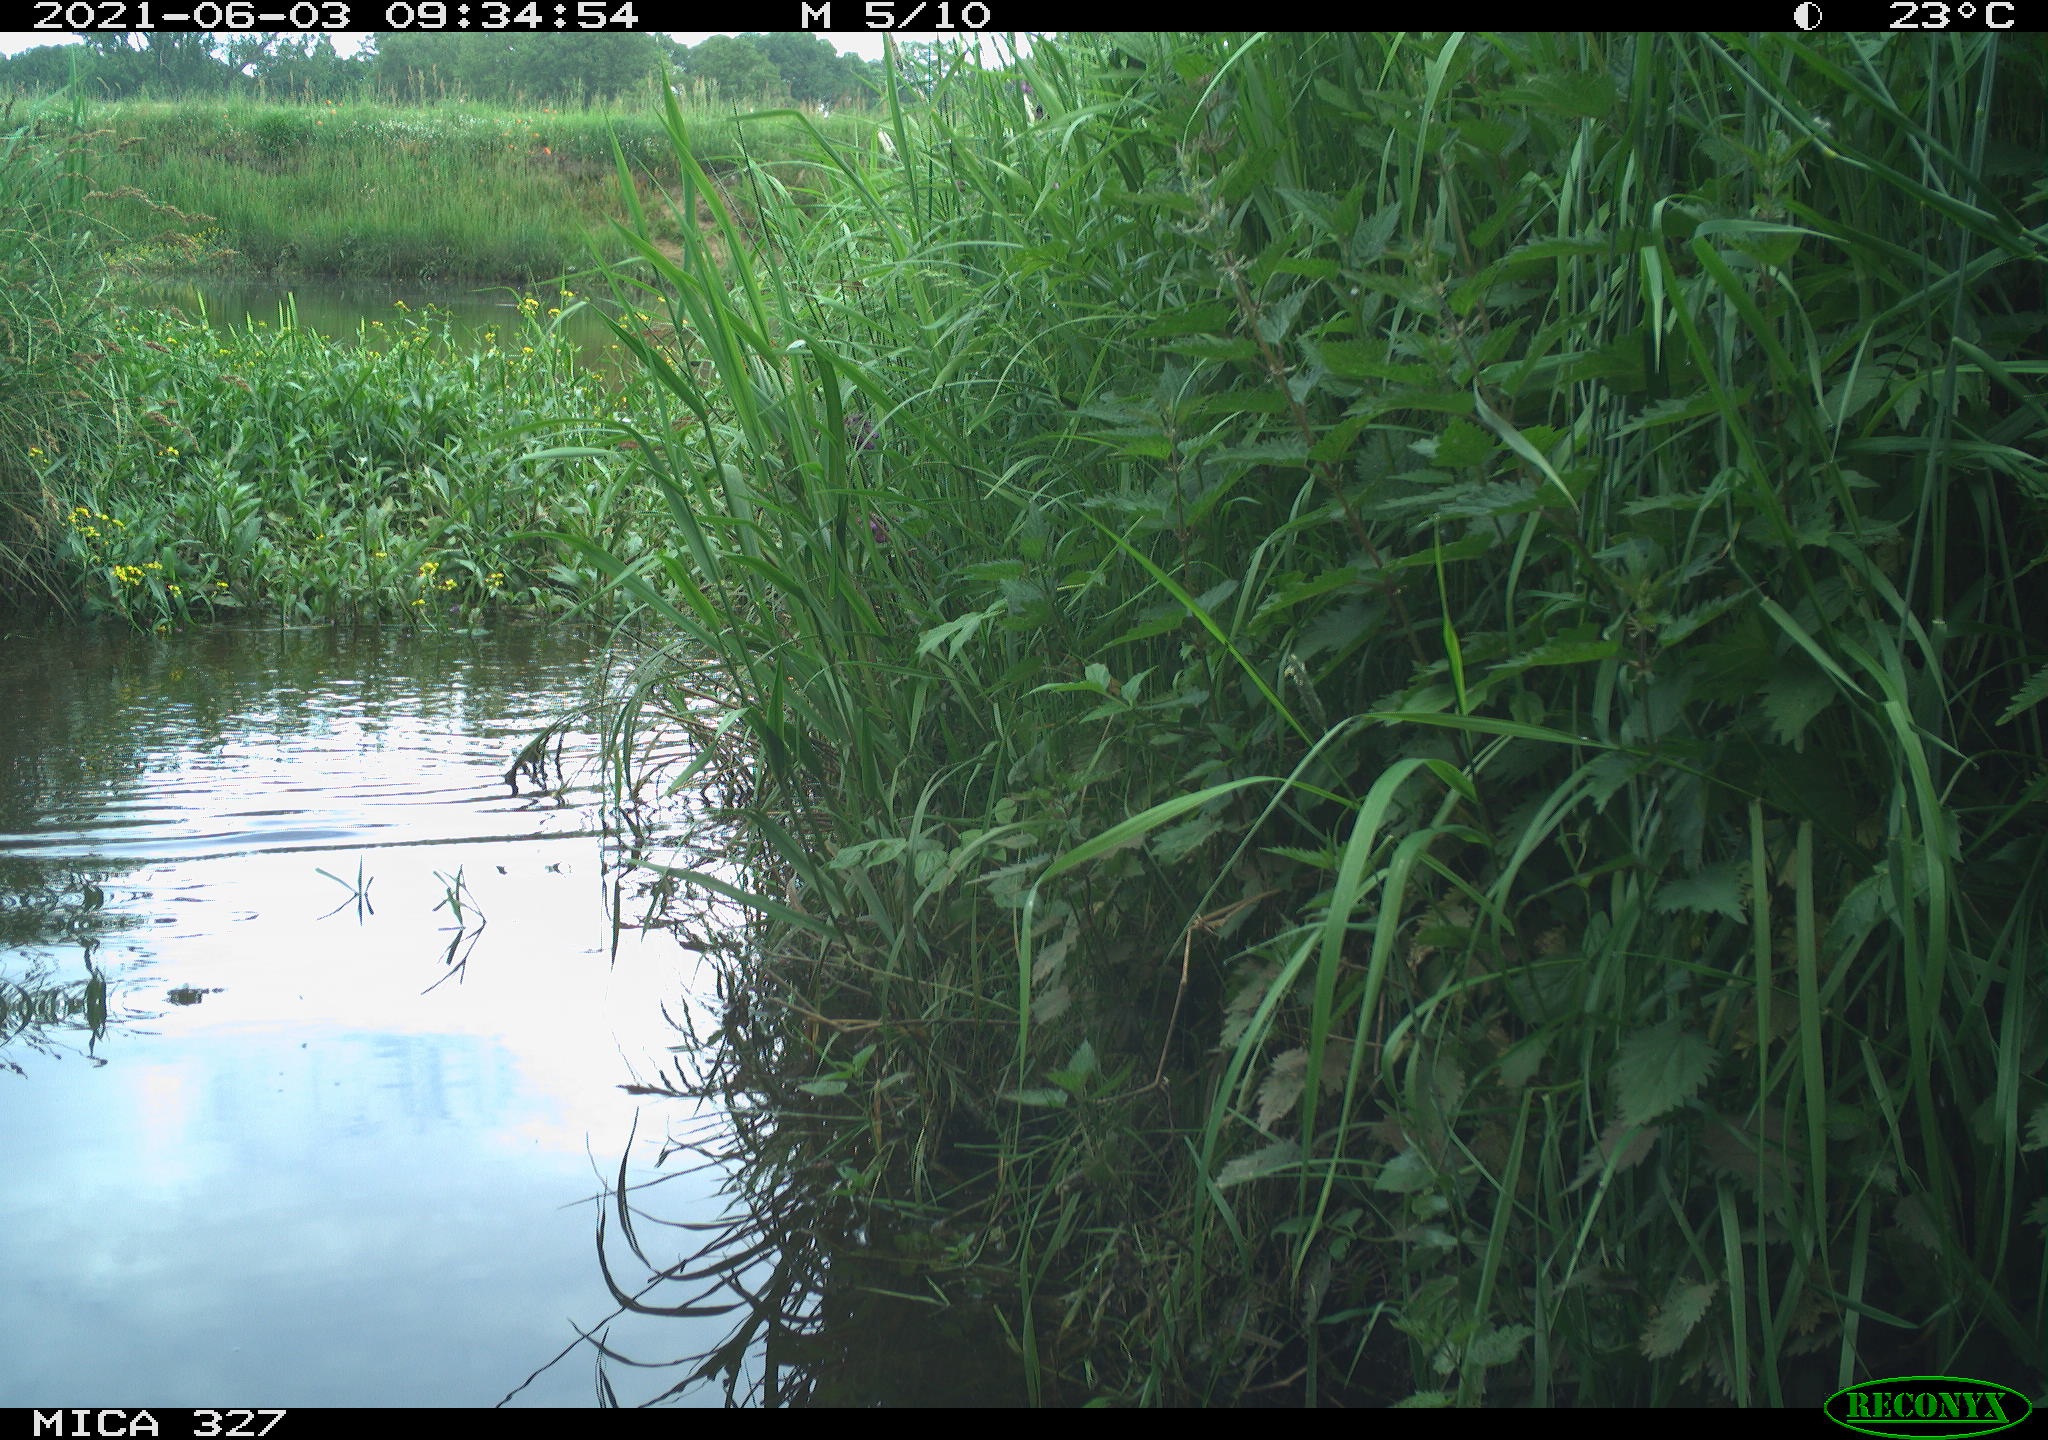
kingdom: Animalia
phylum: Chordata
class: Aves
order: Gruiformes
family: Rallidae
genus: Fulica
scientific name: Fulica atra
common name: Eurasian coot
